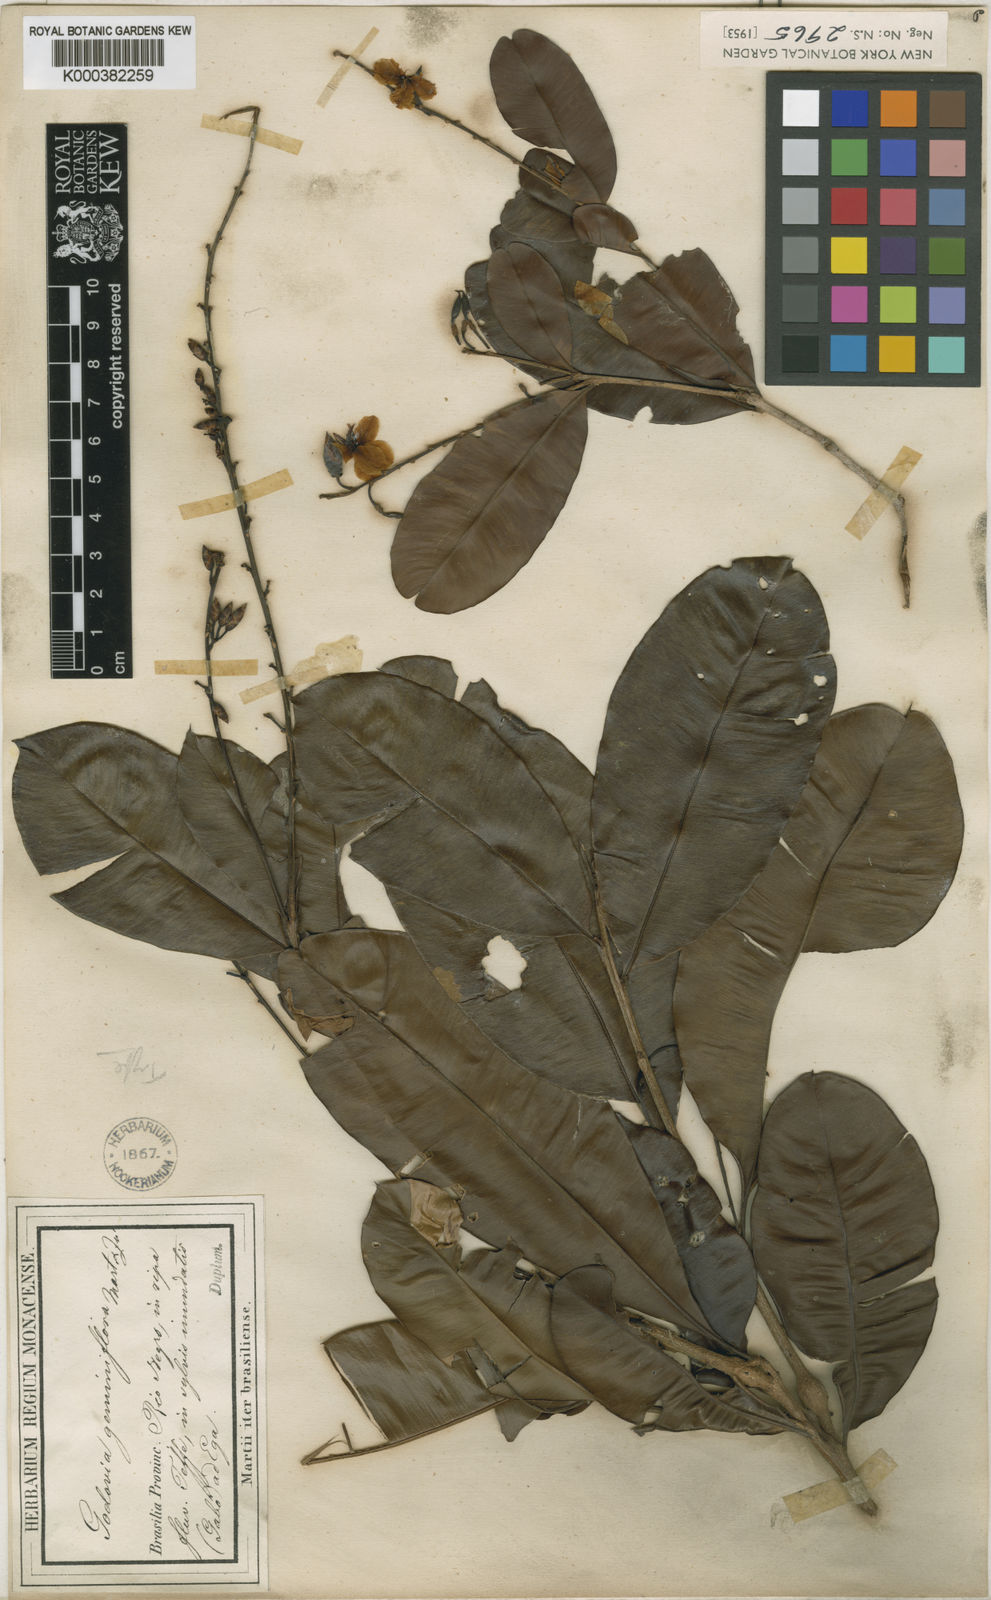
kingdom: Plantae
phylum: Tracheophyta
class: Magnoliopsida
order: Malpighiales
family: Ochnaceae
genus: Blastemanthus
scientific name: Blastemanthus
